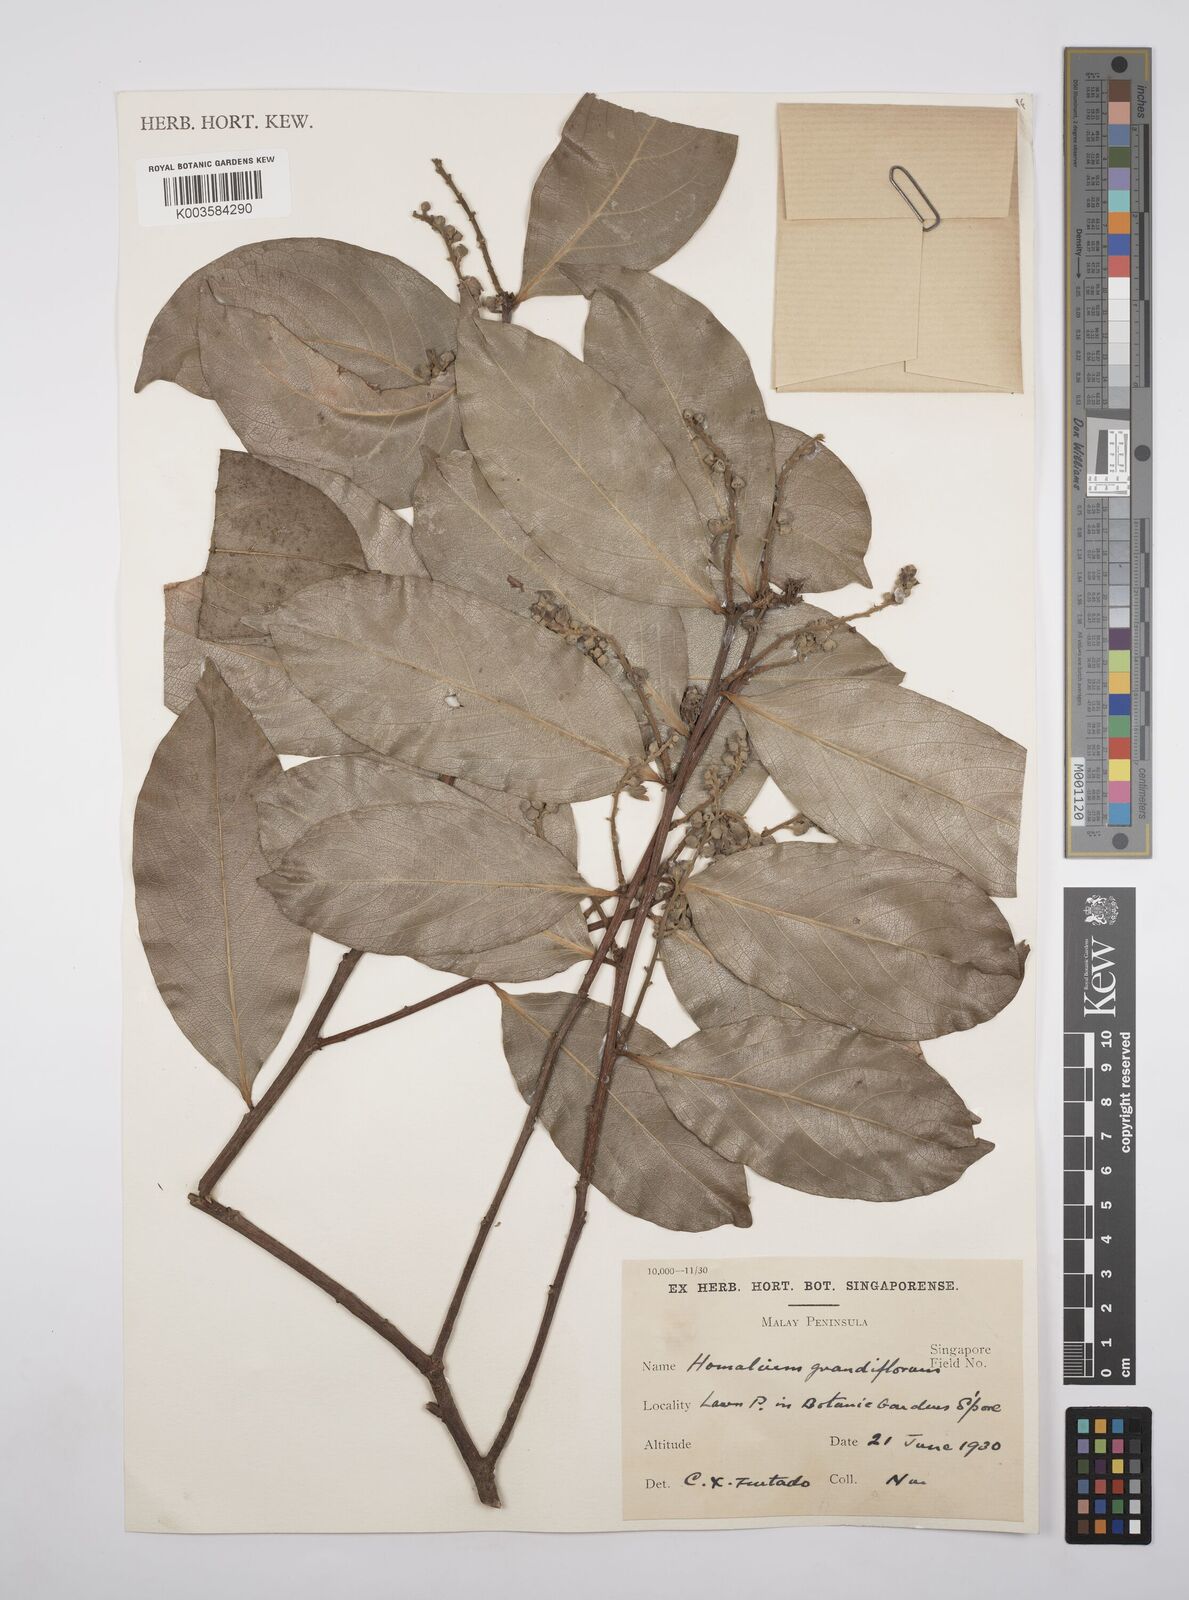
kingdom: Plantae
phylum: Tracheophyta
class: Magnoliopsida
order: Malpighiales
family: Salicaceae
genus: Homalium
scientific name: Homalium grandiflorum
